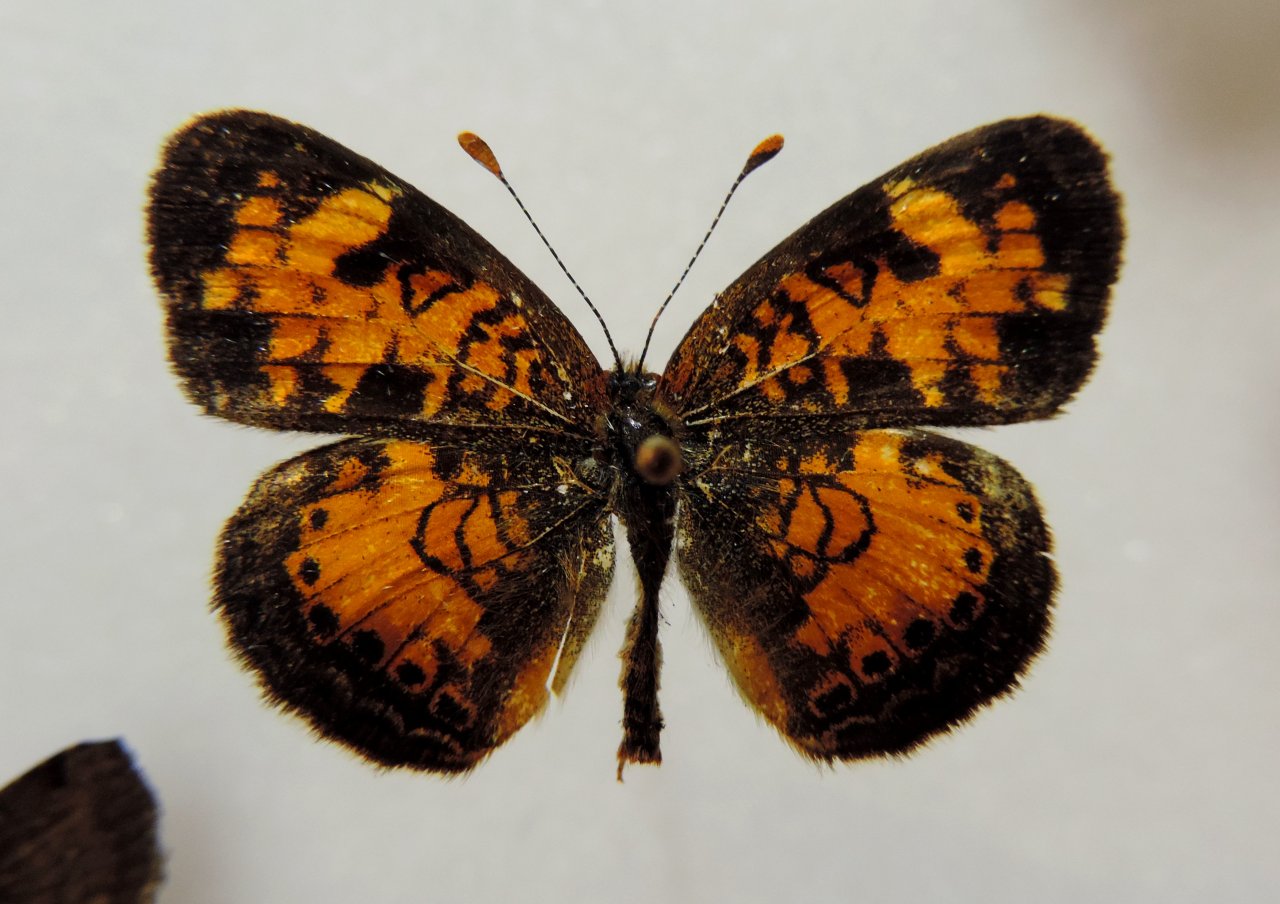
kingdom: Animalia
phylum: Arthropoda
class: Insecta
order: Lepidoptera
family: Nymphalidae
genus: Phyciodes
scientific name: Phyciodes tharos
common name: Northern Crescent
